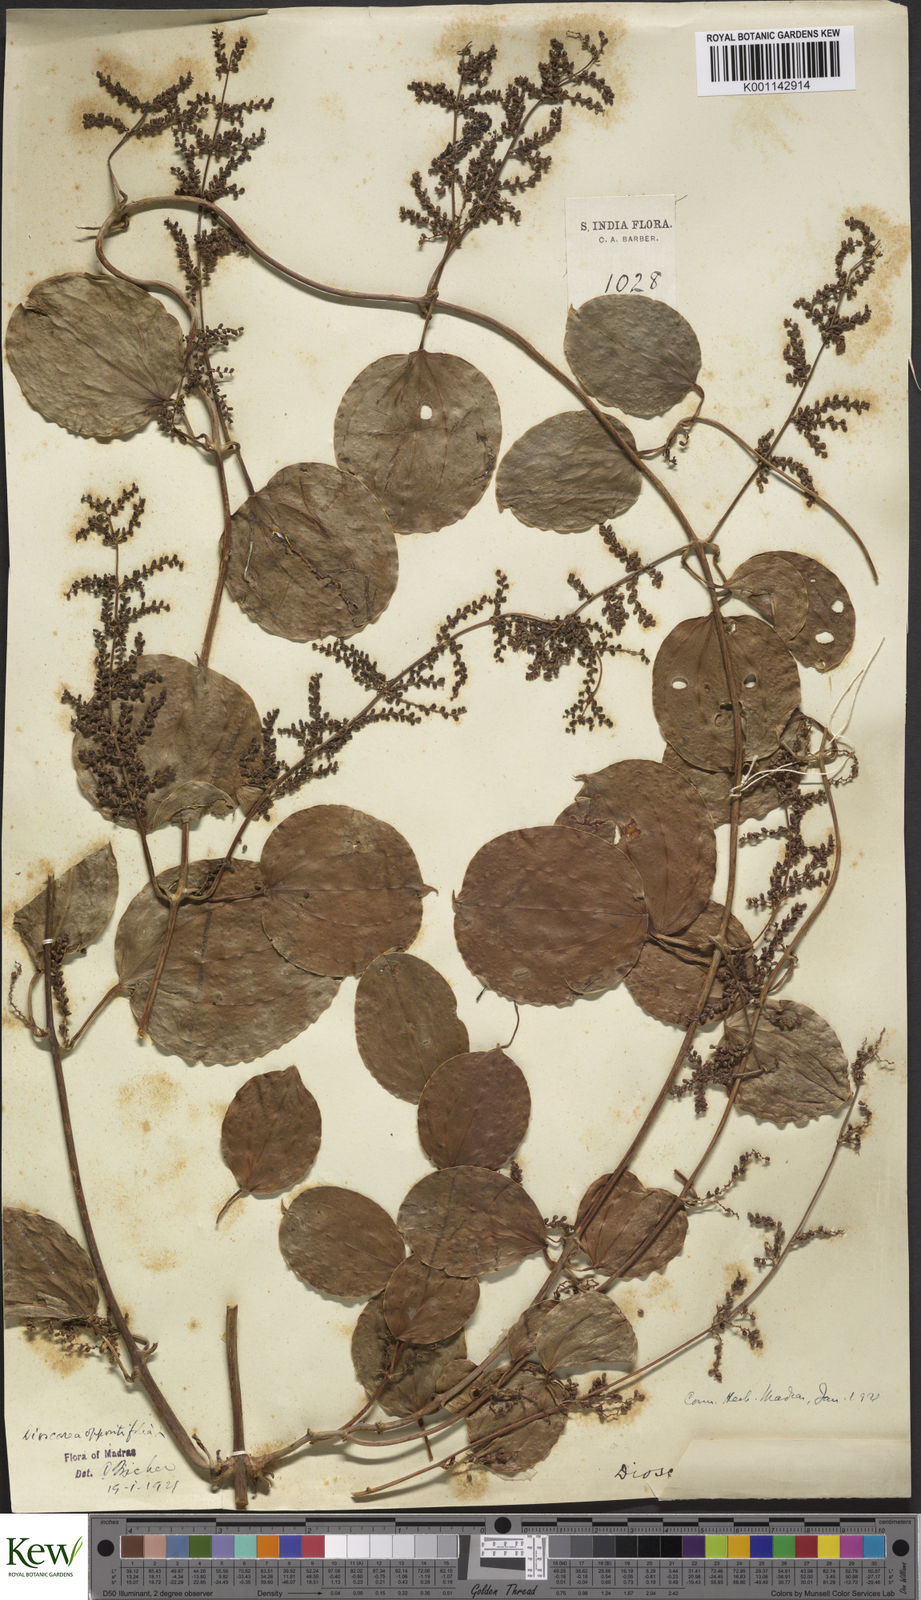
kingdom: Plantae
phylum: Tracheophyta
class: Liliopsida
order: Dioscoreales
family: Dioscoreaceae
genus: Dioscorea
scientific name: Dioscorea oppositifolia
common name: Chinese yam
